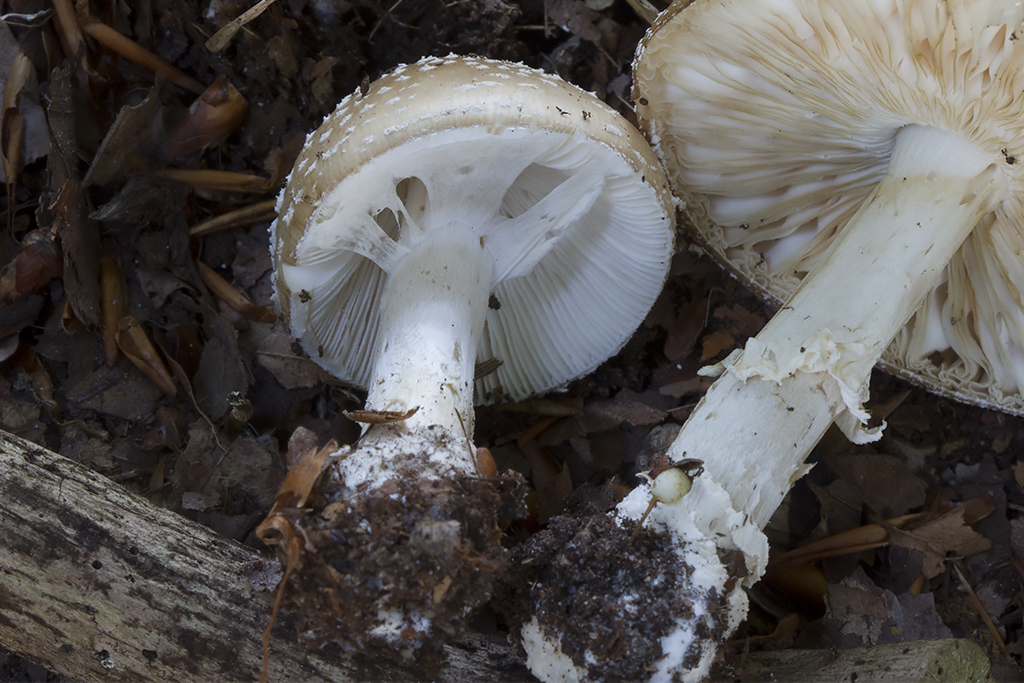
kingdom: Fungi
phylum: Basidiomycota
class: Agaricomycetes
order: Agaricales
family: Amanitaceae
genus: Amanita
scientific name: Amanita pantherina
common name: panter-fluesvamp
